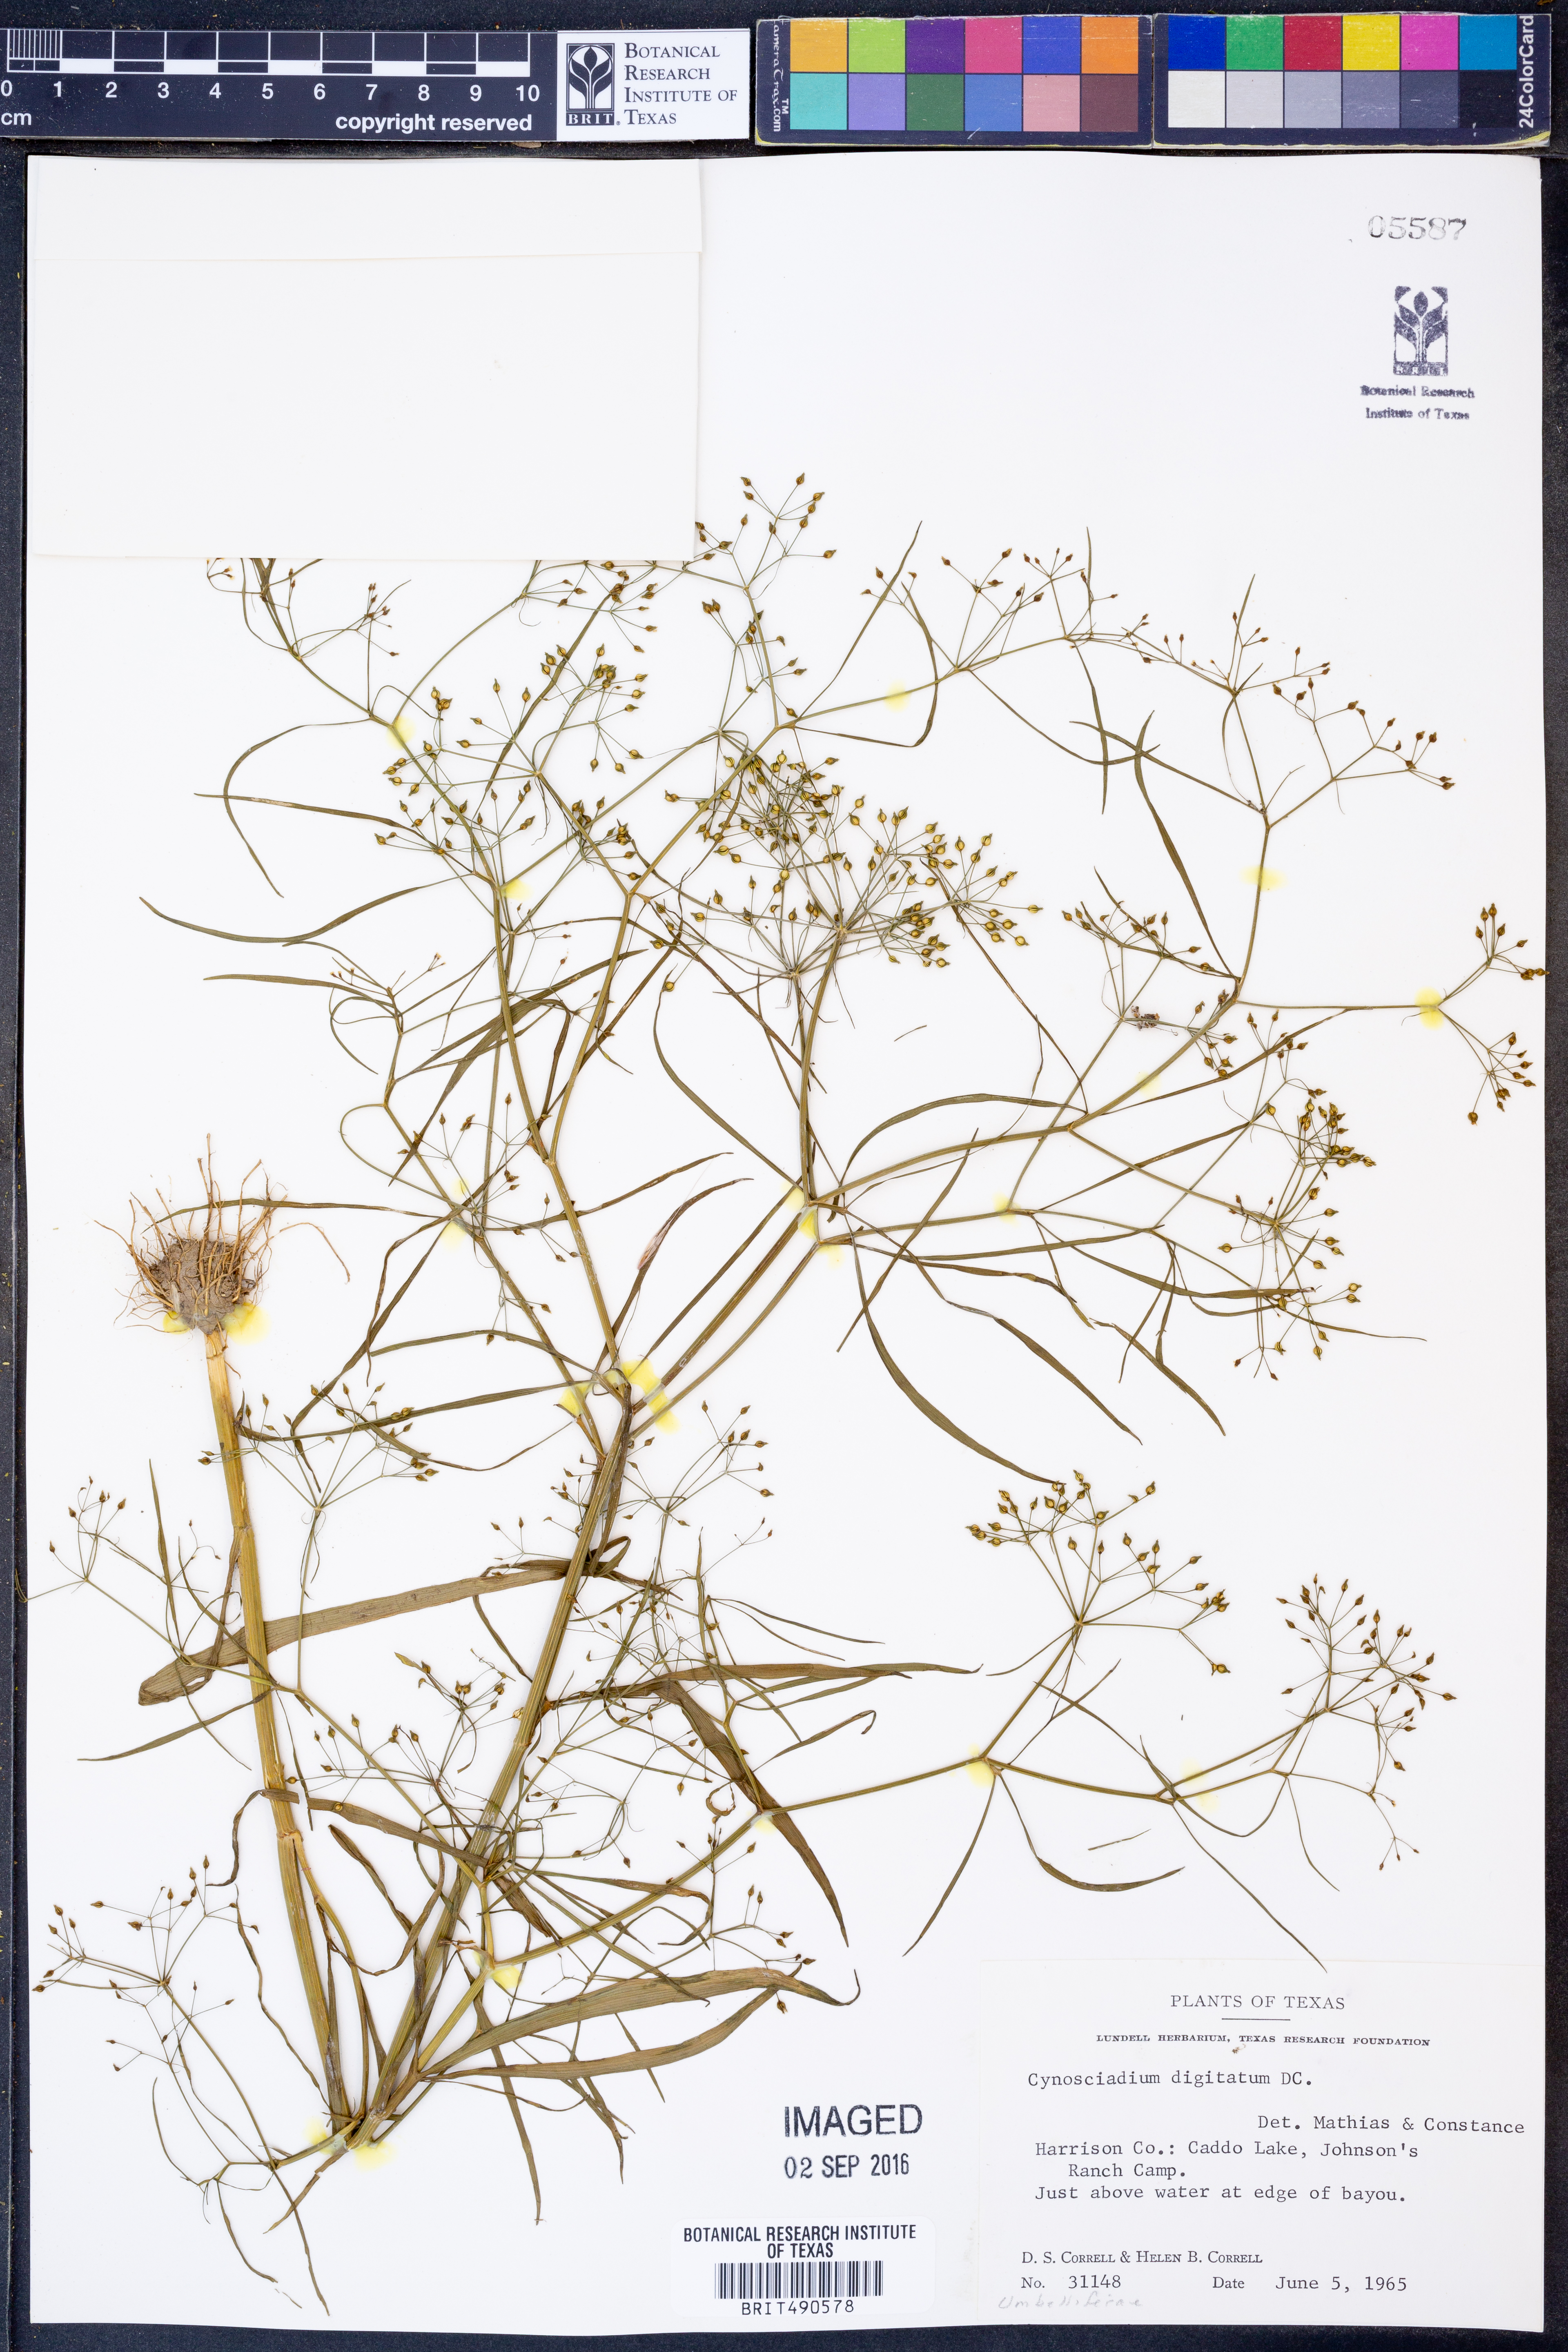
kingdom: Plantae
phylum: Tracheophyta
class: Magnoliopsida
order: Apiales
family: Apiaceae
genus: Cynosciadium
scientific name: Cynosciadium digitatum
